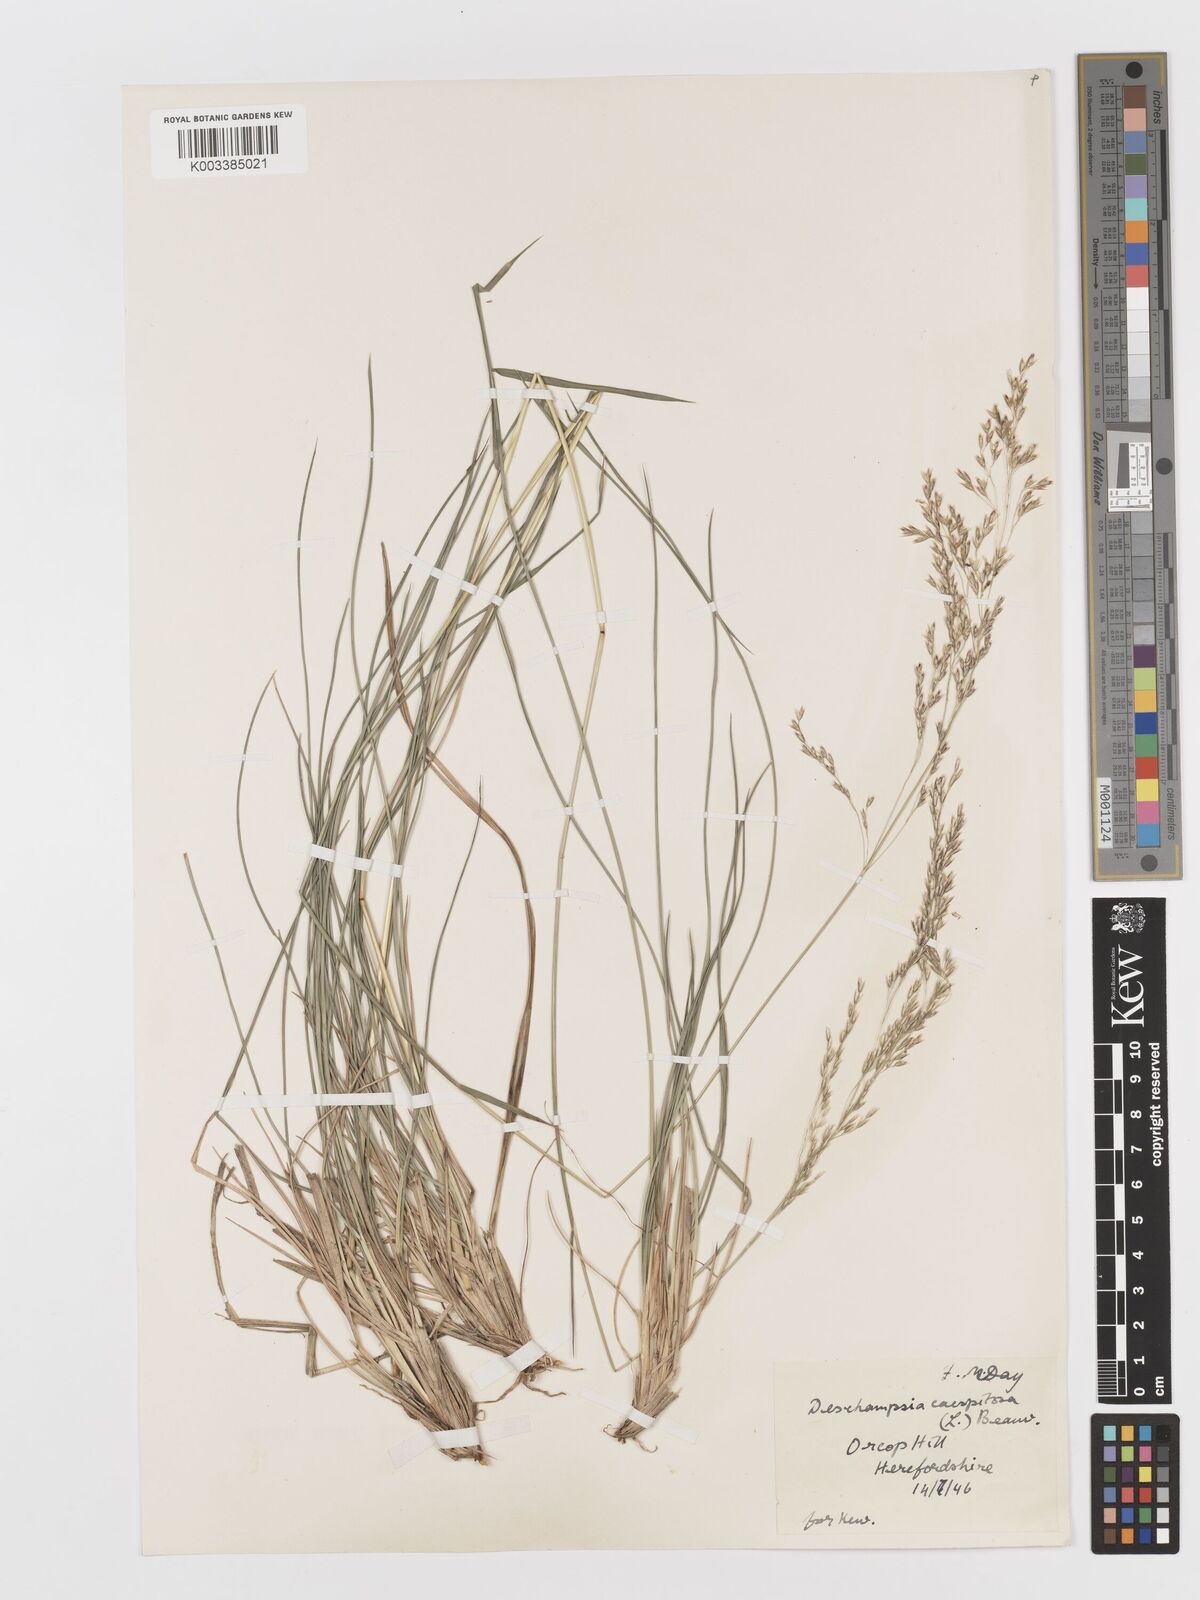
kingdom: Plantae
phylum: Tracheophyta
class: Liliopsida
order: Poales
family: Poaceae
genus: Deschampsia
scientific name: Deschampsia cespitosa
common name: Tufted hair-grass
